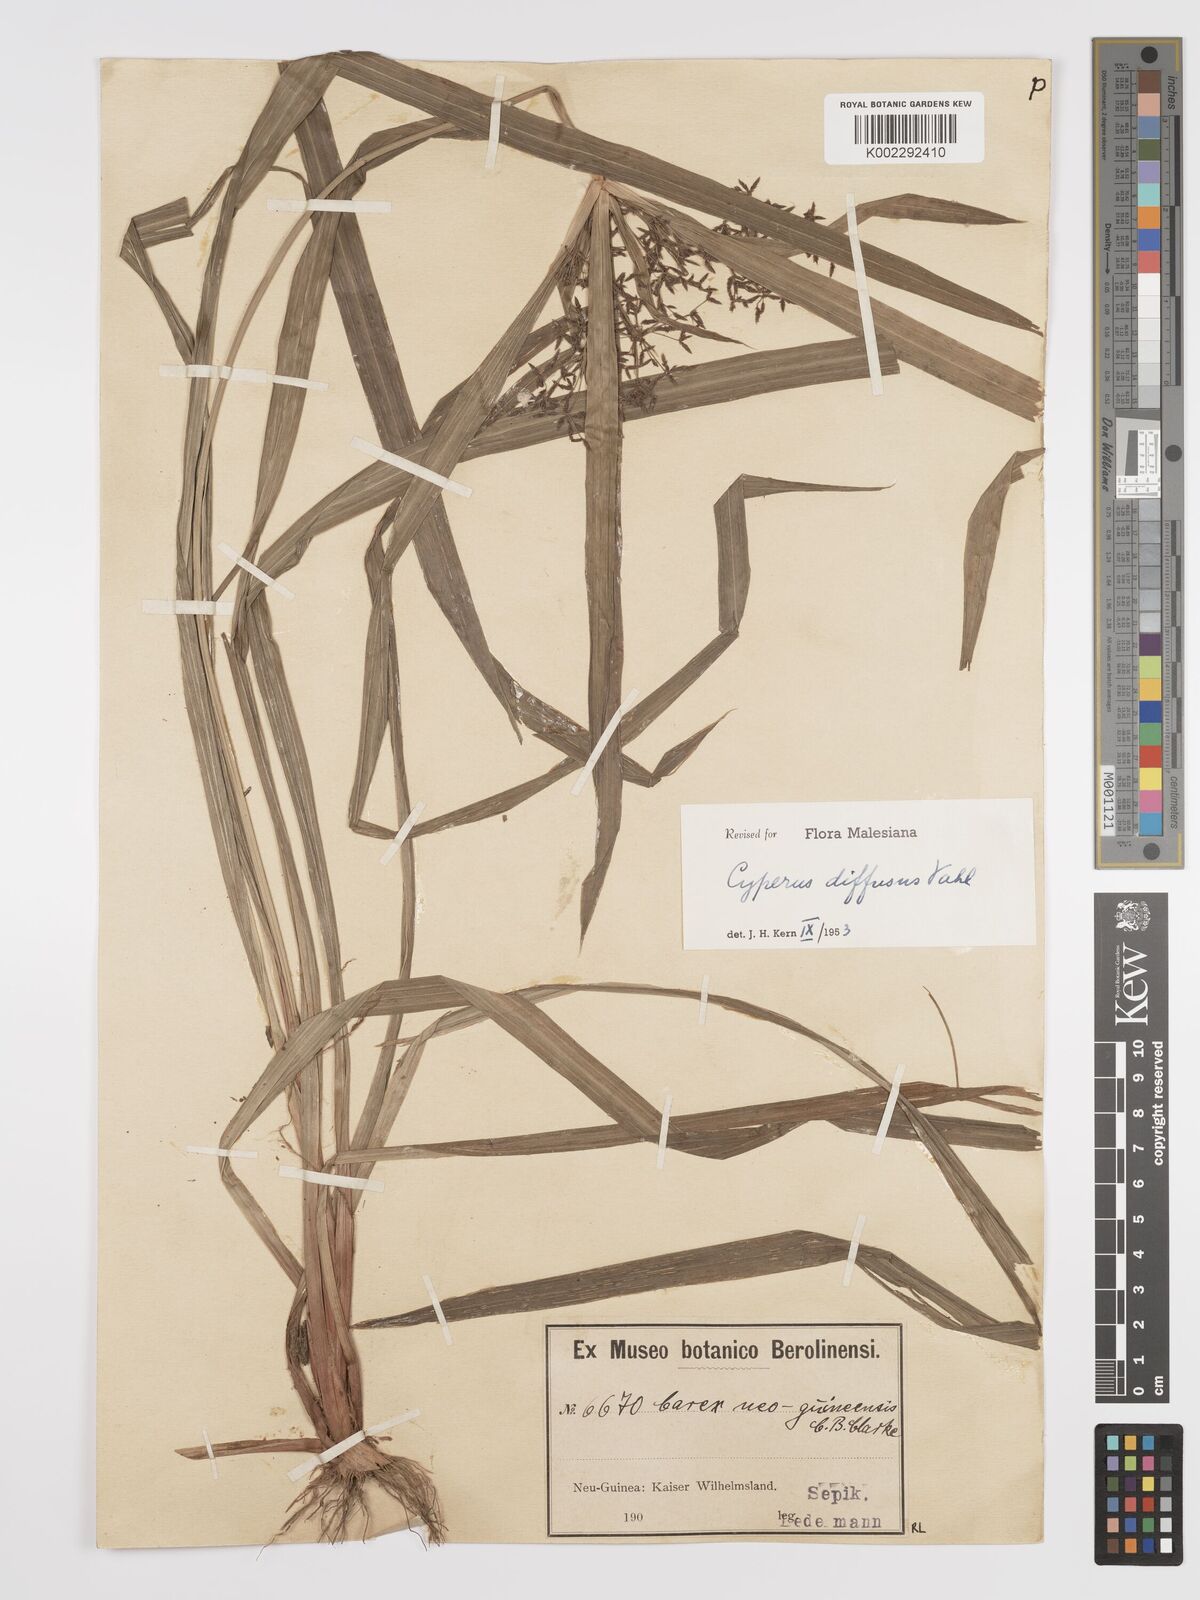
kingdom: Plantae
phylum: Tracheophyta
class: Liliopsida
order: Poales
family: Cyperaceae
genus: Cyperus
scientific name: Cyperus diffusus
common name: Dwarf umbrella grass
